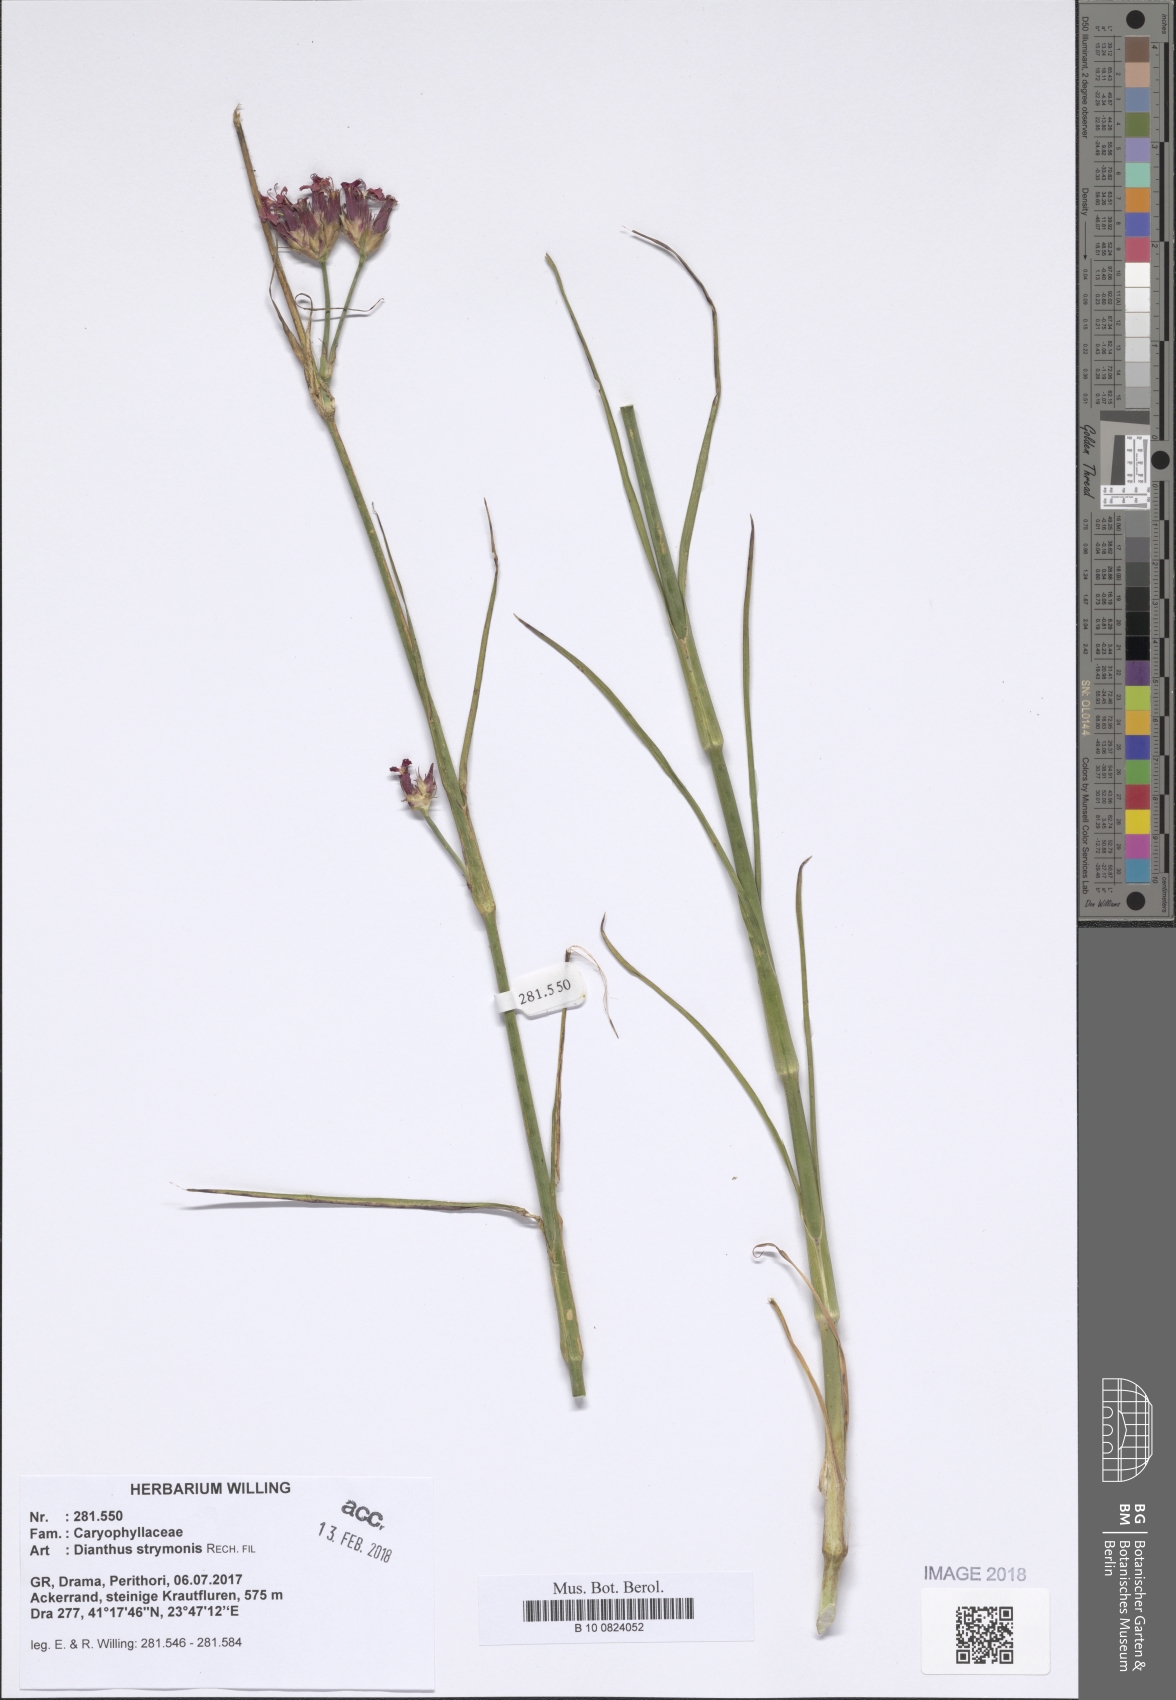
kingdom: Plantae
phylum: Tracheophyta
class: Magnoliopsida
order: Caryophyllales
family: Caryophyllaceae
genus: Dianthus
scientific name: Dianthus strymonis
